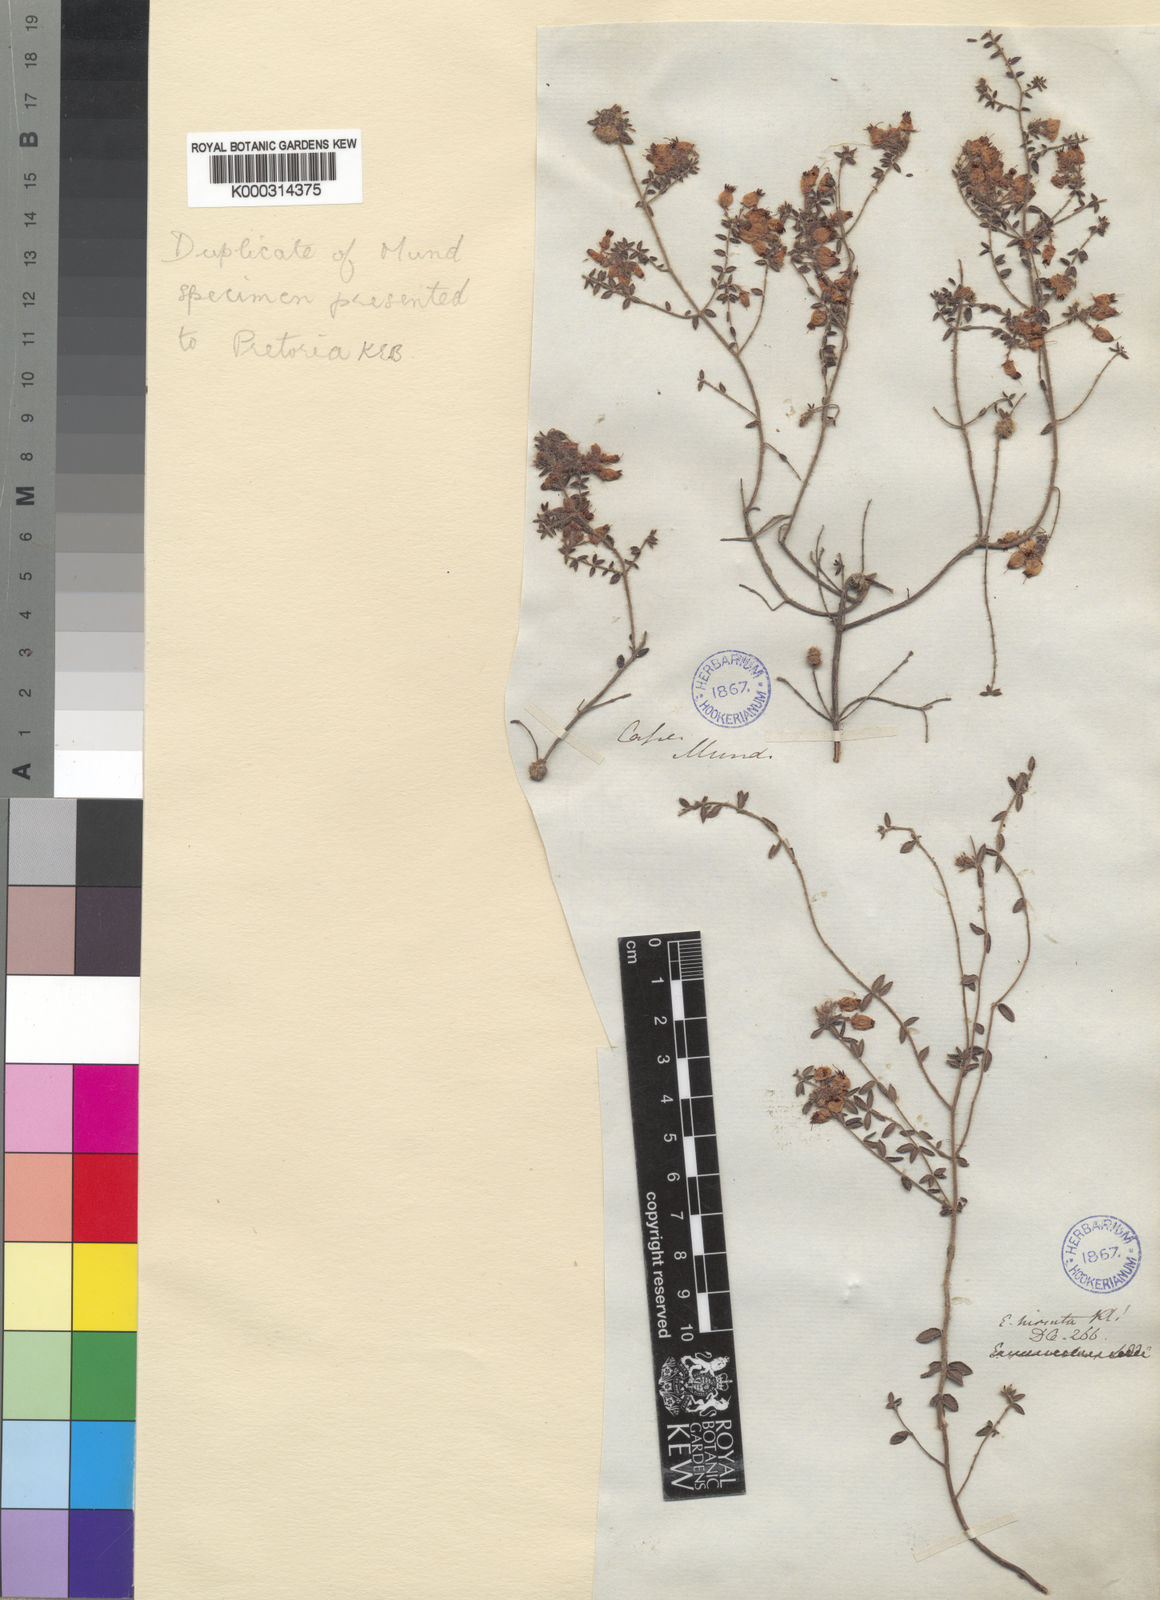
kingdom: Plantae
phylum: Tracheophyta
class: Magnoliopsida
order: Ericales
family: Ericaceae
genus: Erica
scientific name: Erica aneimena
